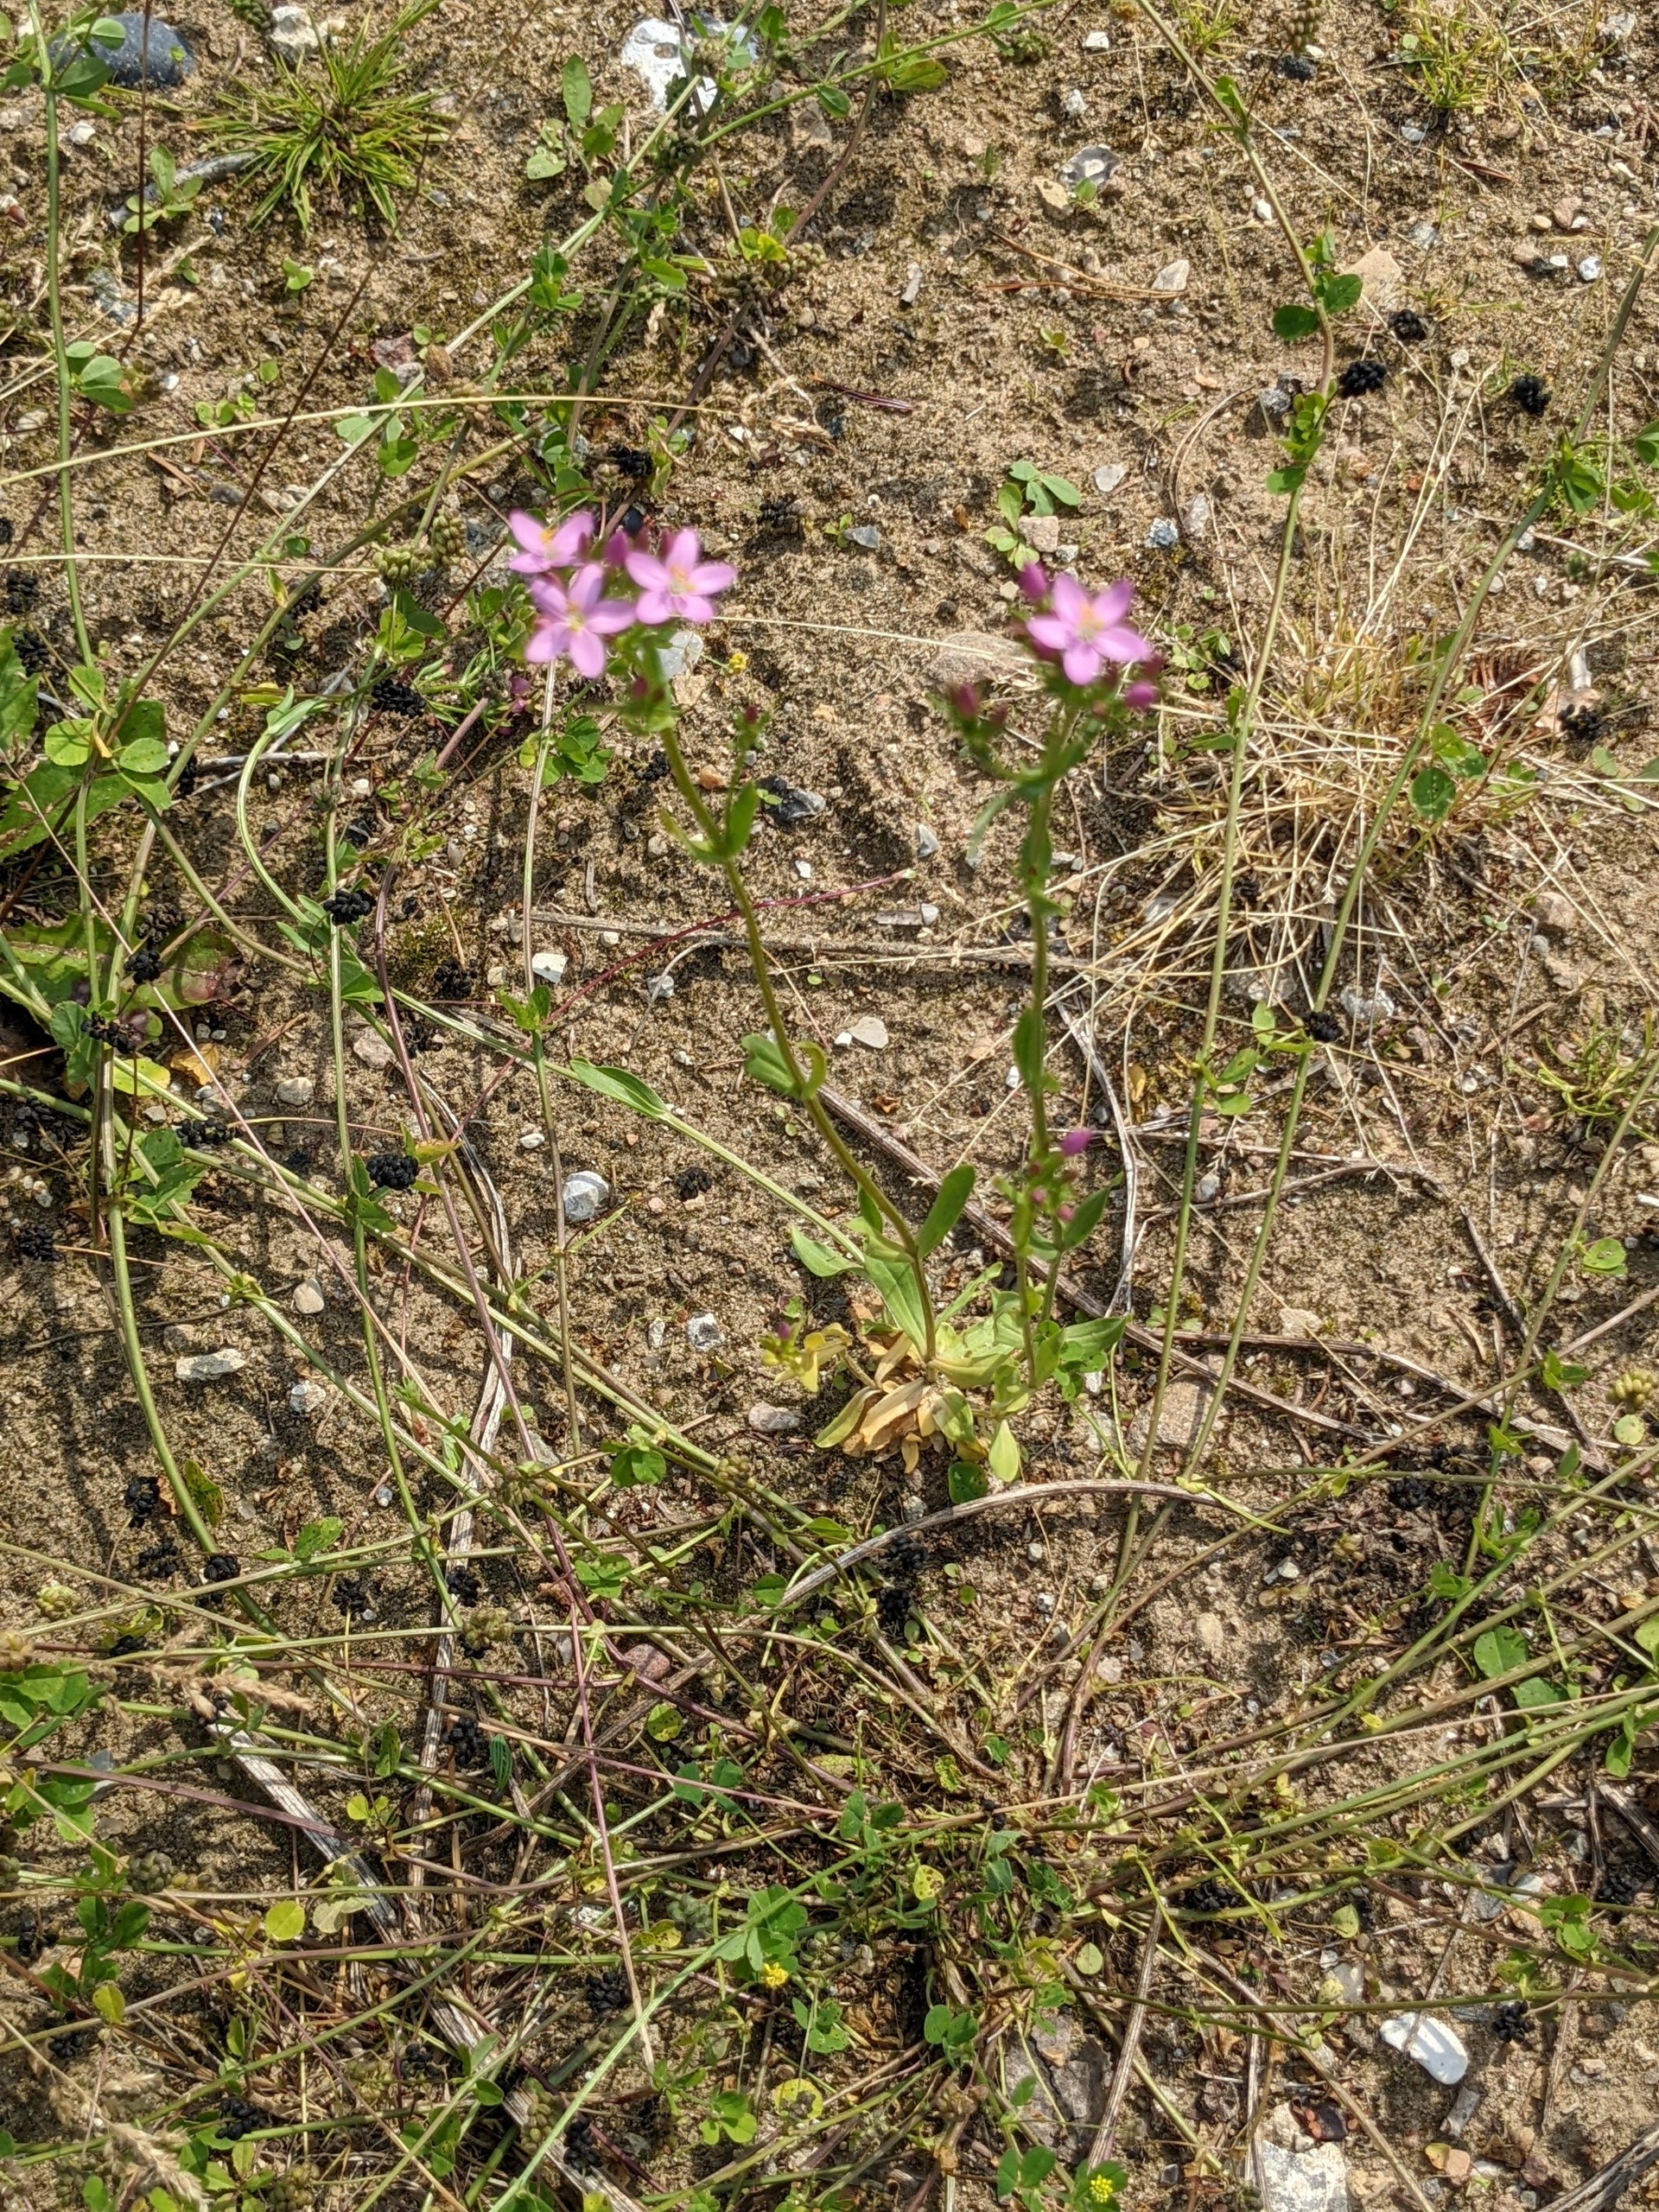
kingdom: Plantae
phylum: Tracheophyta
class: Magnoliopsida
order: Gentianales
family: Gentianaceae
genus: Centaurium
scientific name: Centaurium erythraea
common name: Mark-tusindgylden
